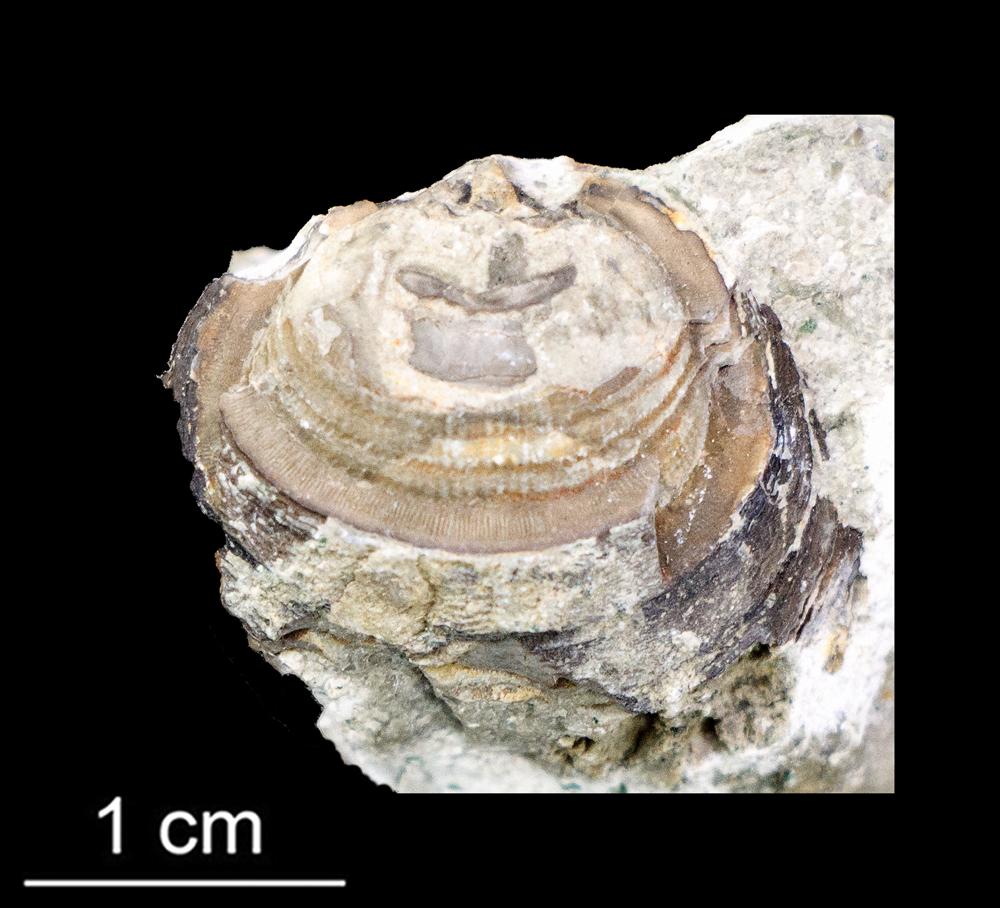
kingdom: Animalia
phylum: Brachiopoda
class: Lingulata
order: Lingulida
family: Zhanatellidae
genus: Thysanotos
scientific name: Thysanotos
